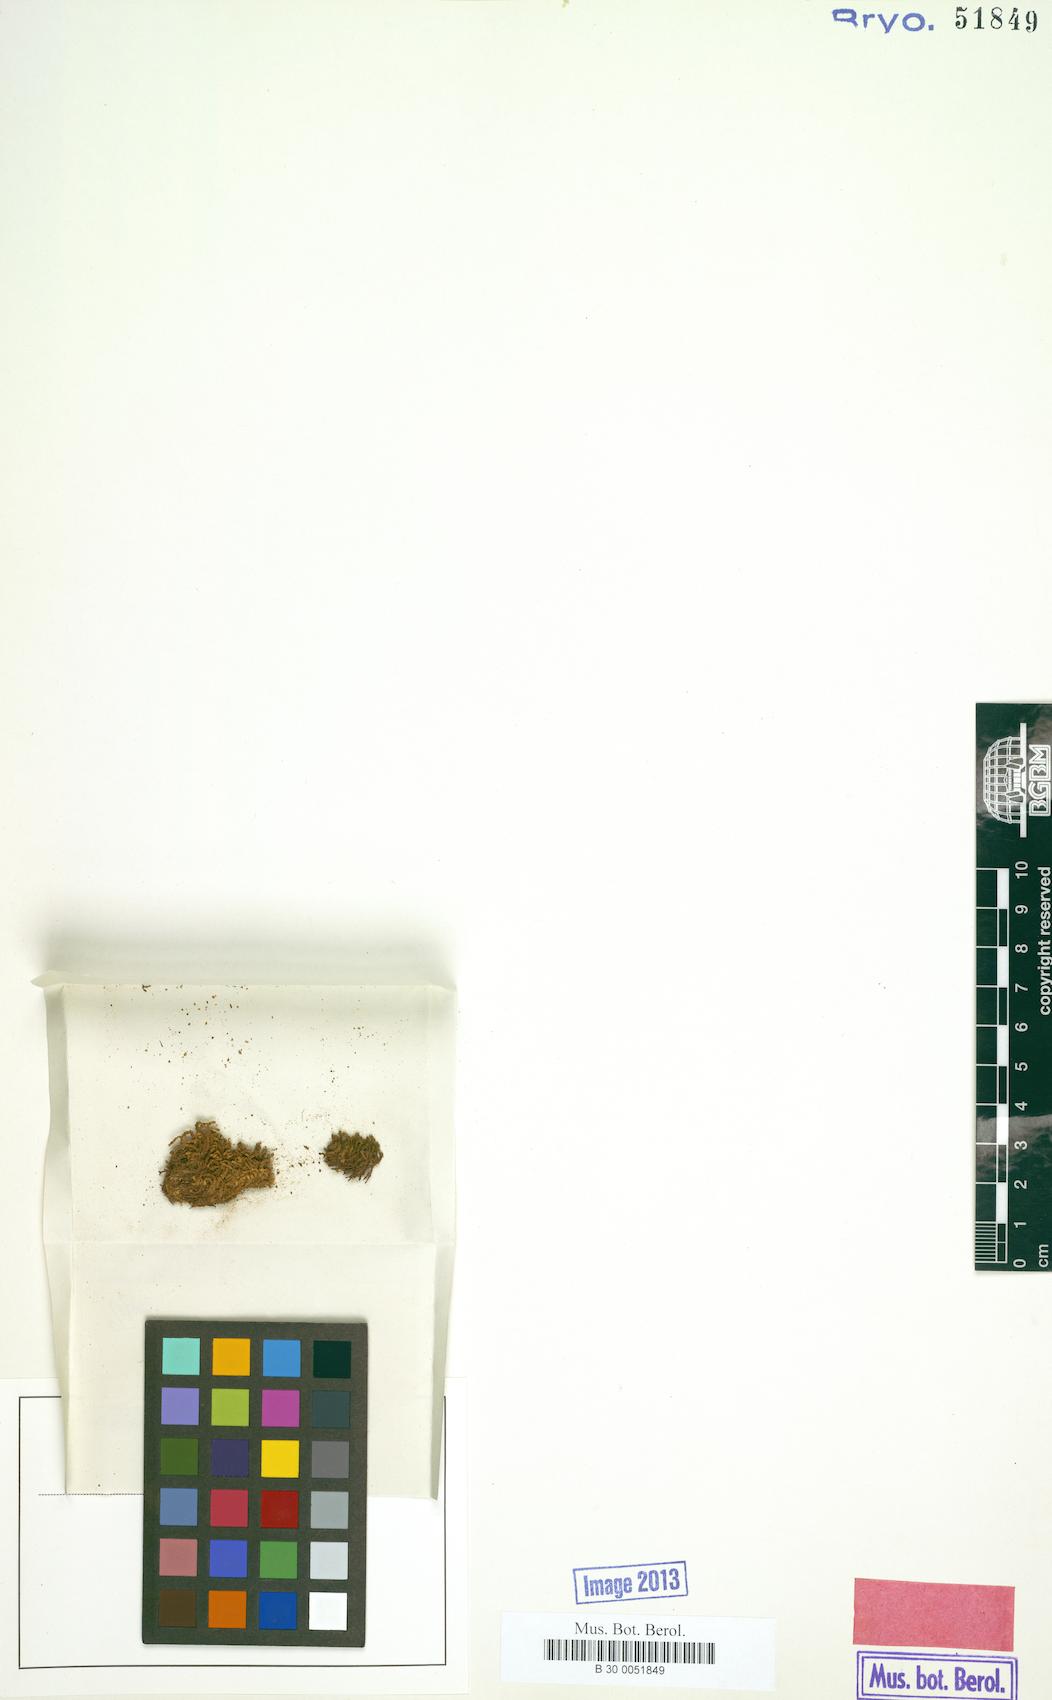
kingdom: Plantae
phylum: Bryophyta
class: Bryopsida
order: Pottiales
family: Pottiaceae
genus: Hydrogonium
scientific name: Hydrogonium consanguineum
